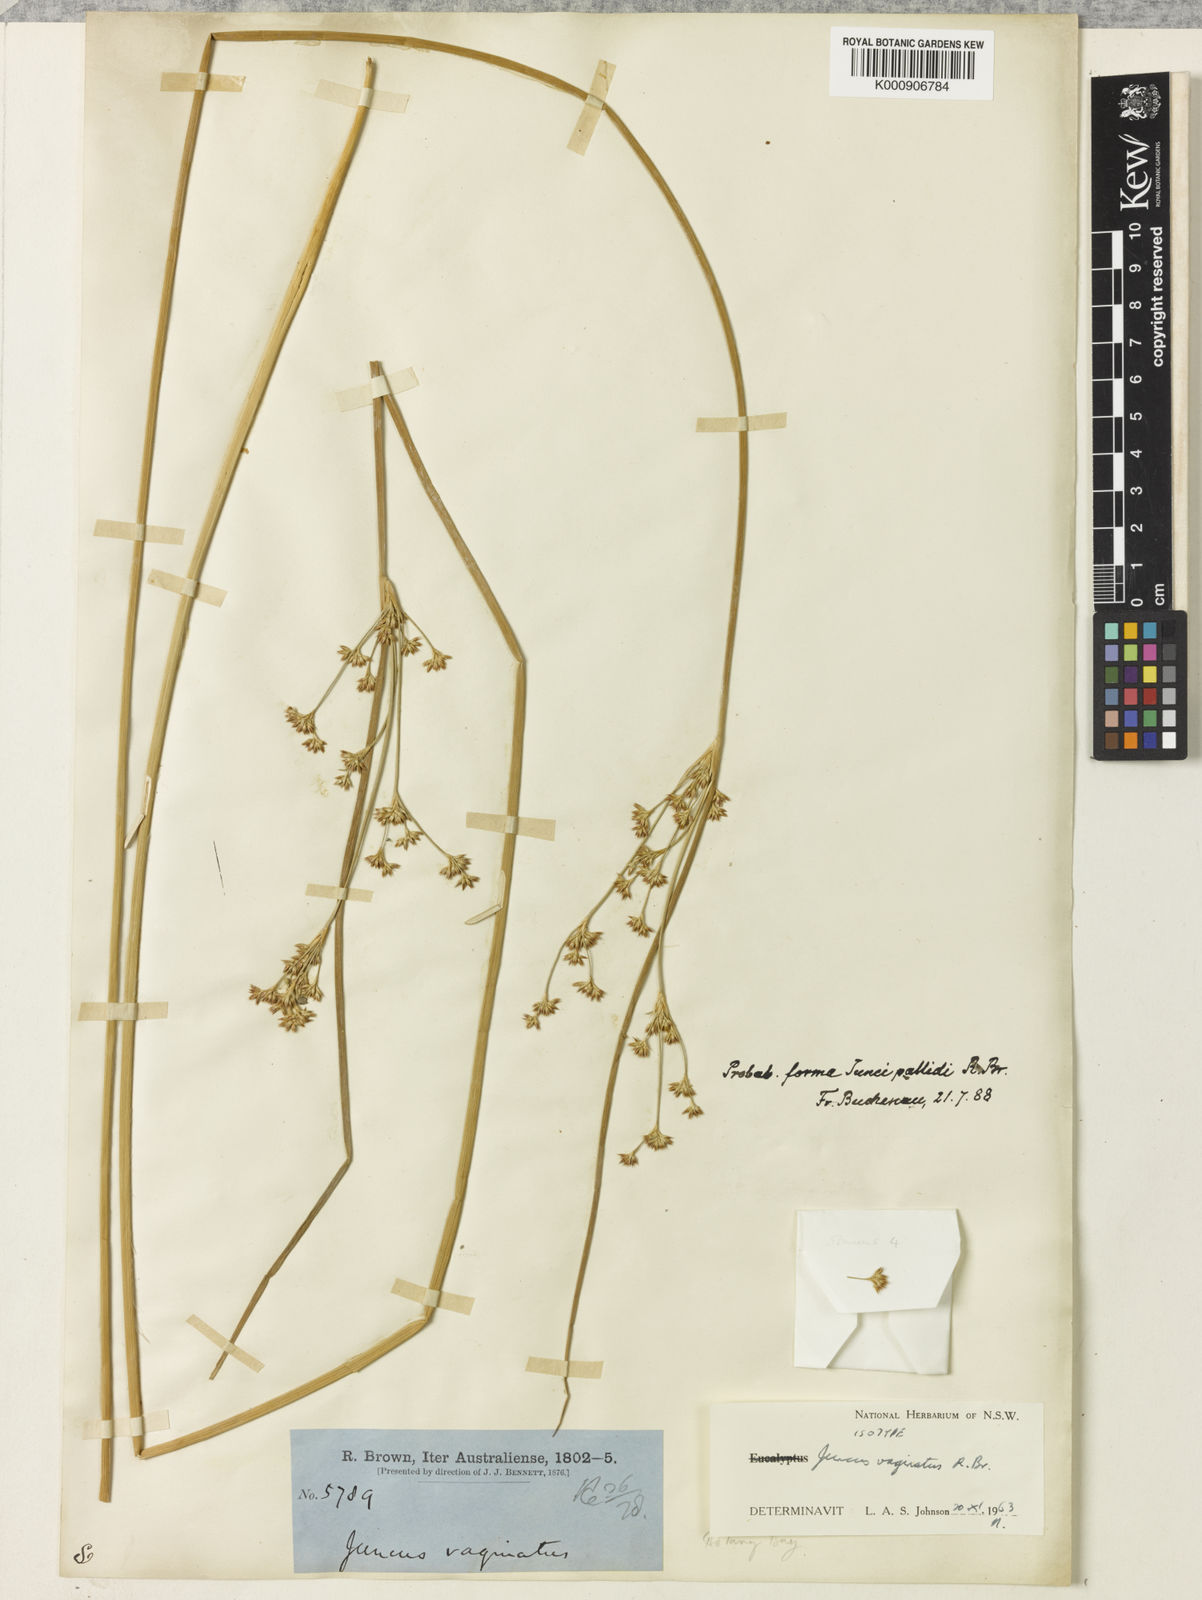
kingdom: Plantae
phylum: Tracheophyta
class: Liliopsida
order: Poales
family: Juncaceae
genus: Juncus
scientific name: Juncus vaginatus
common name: Clustered rush
